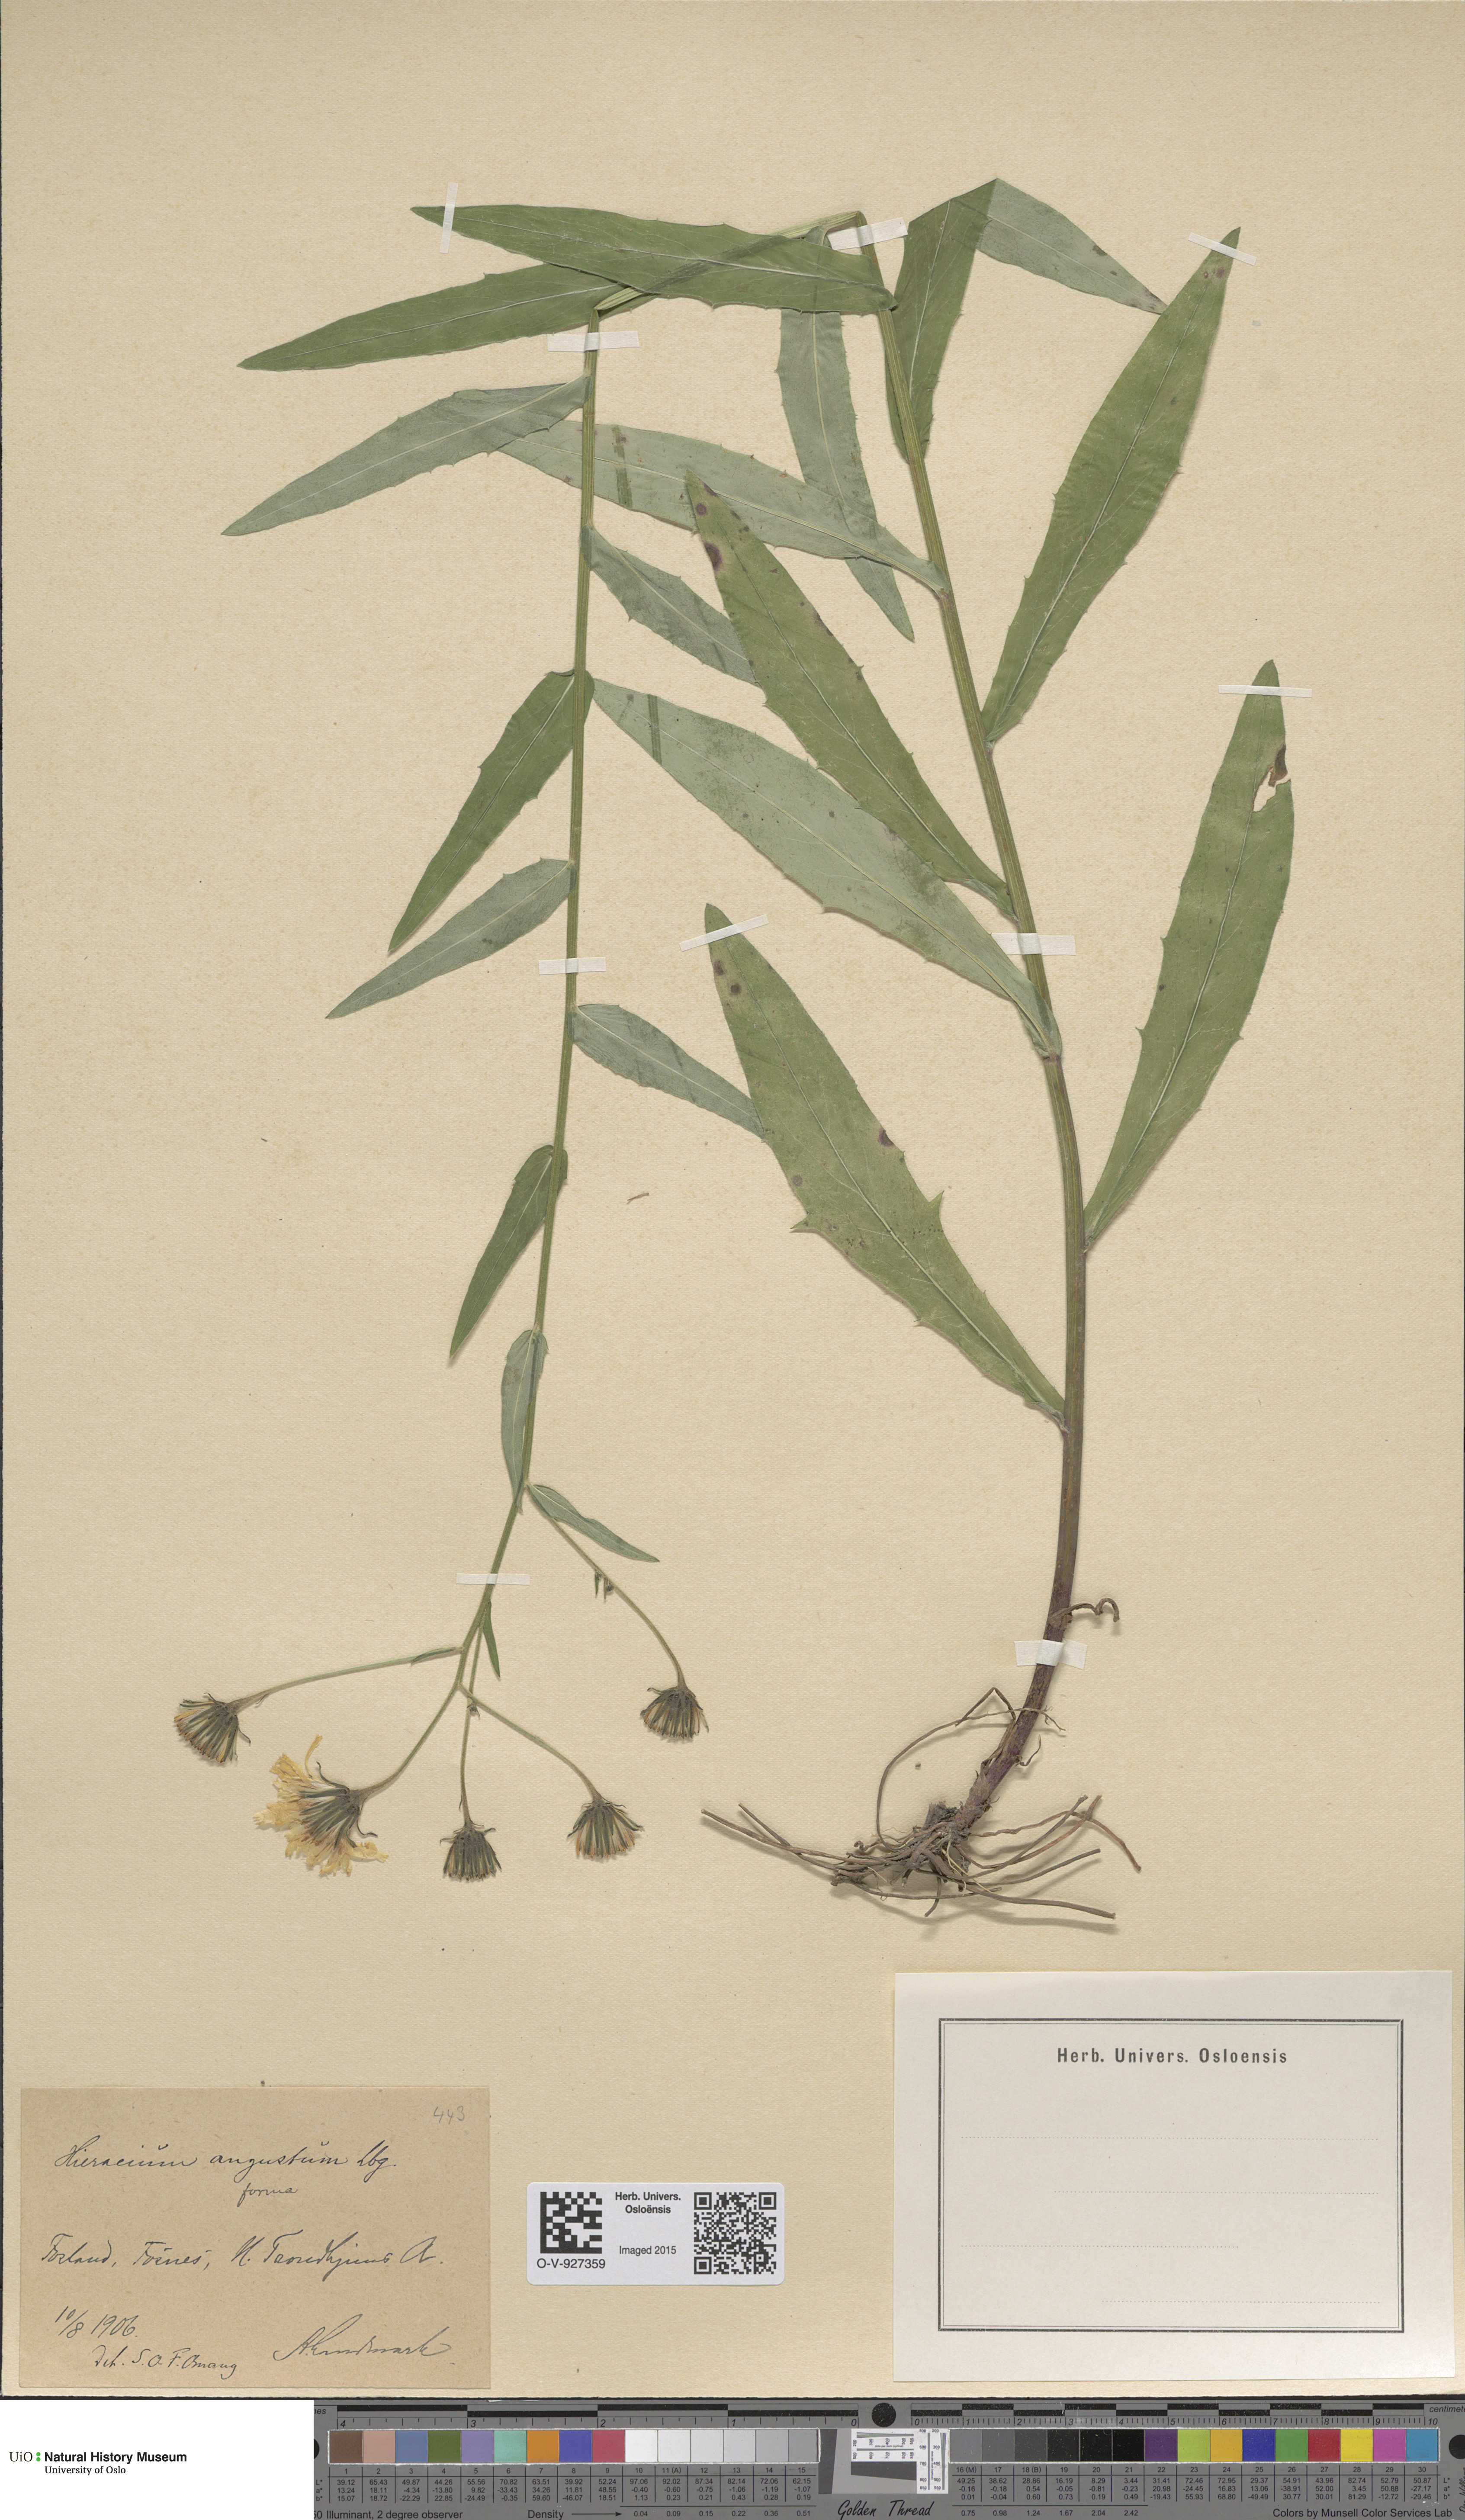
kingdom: Plantae
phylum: Tracheophyta
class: Magnoliopsida
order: Asterales
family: Asteraceae
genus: Hieracium
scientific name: Hieracium angustum
